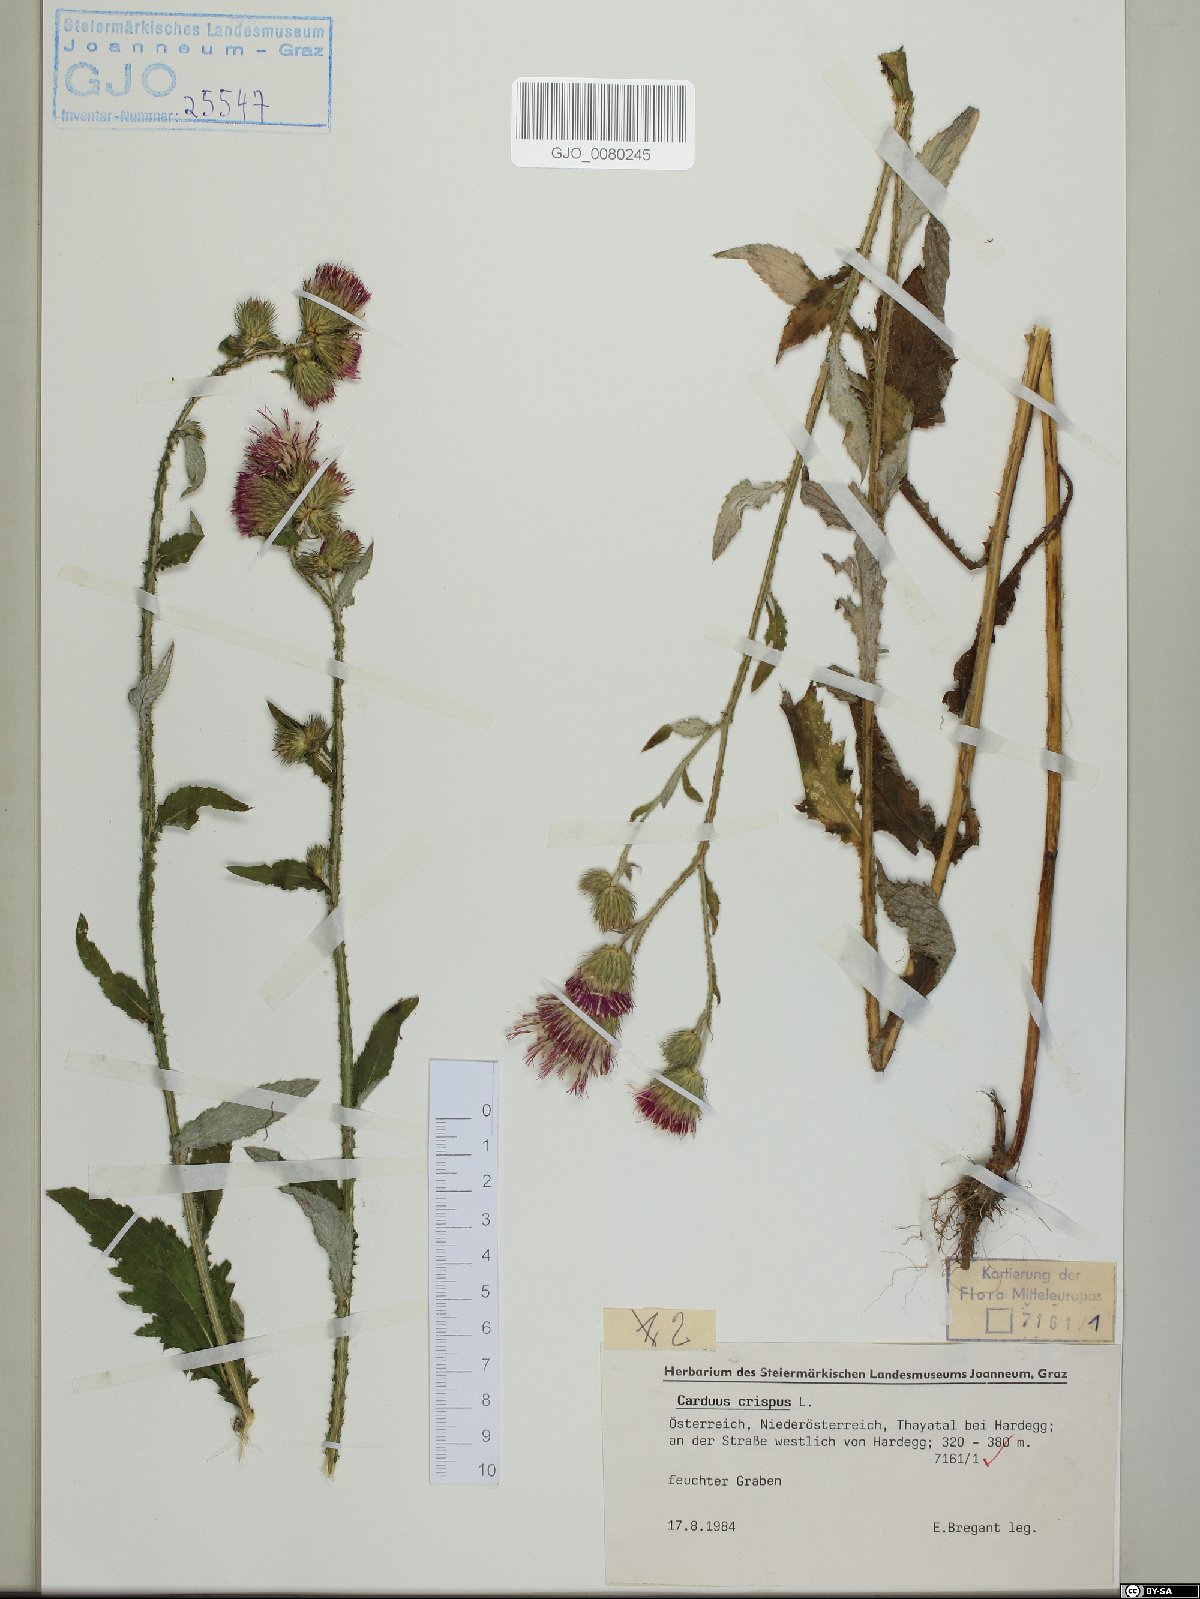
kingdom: Plantae
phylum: Tracheophyta
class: Magnoliopsida
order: Asterales
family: Asteraceae
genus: Carduus
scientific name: Carduus crispus
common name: Welted thistle
